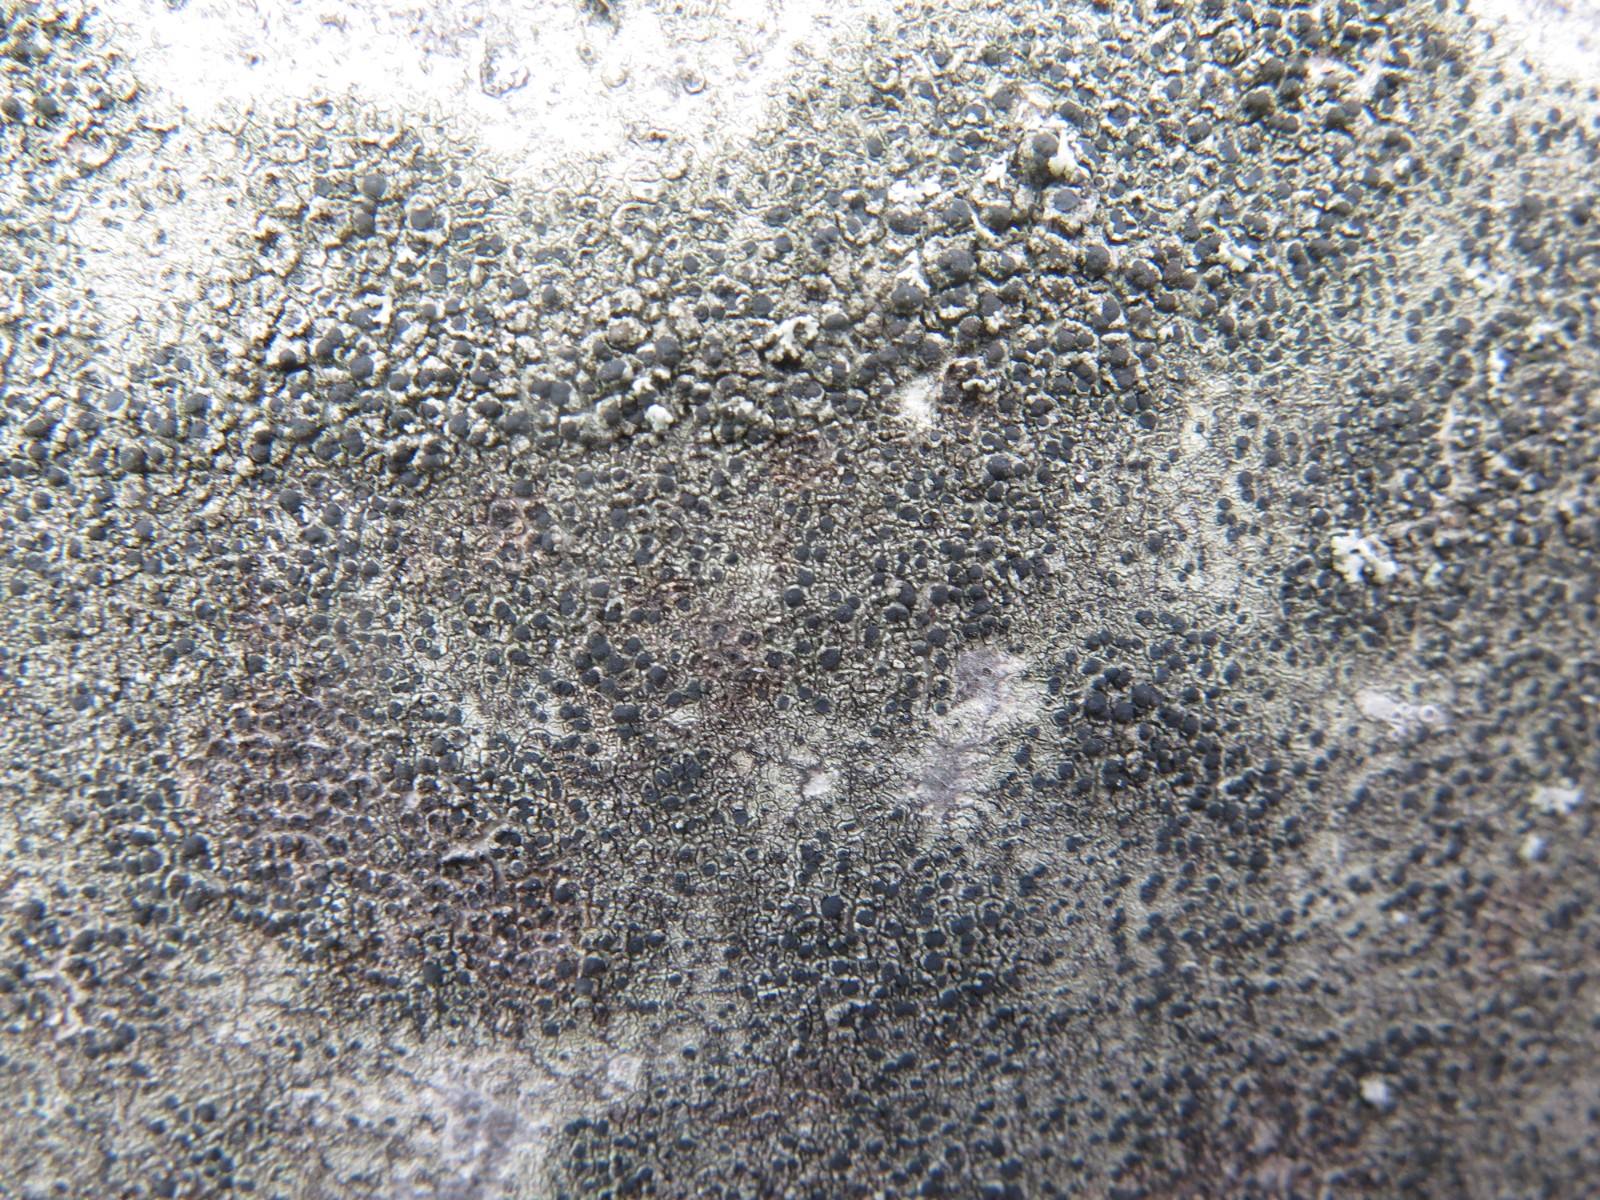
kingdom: Fungi
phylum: Ascomycota
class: Lecanoromycetes
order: Lecanorales
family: Lecanoraceae
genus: Lecidella
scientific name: Lecidella elaeochroma
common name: grågrøn skivelav
